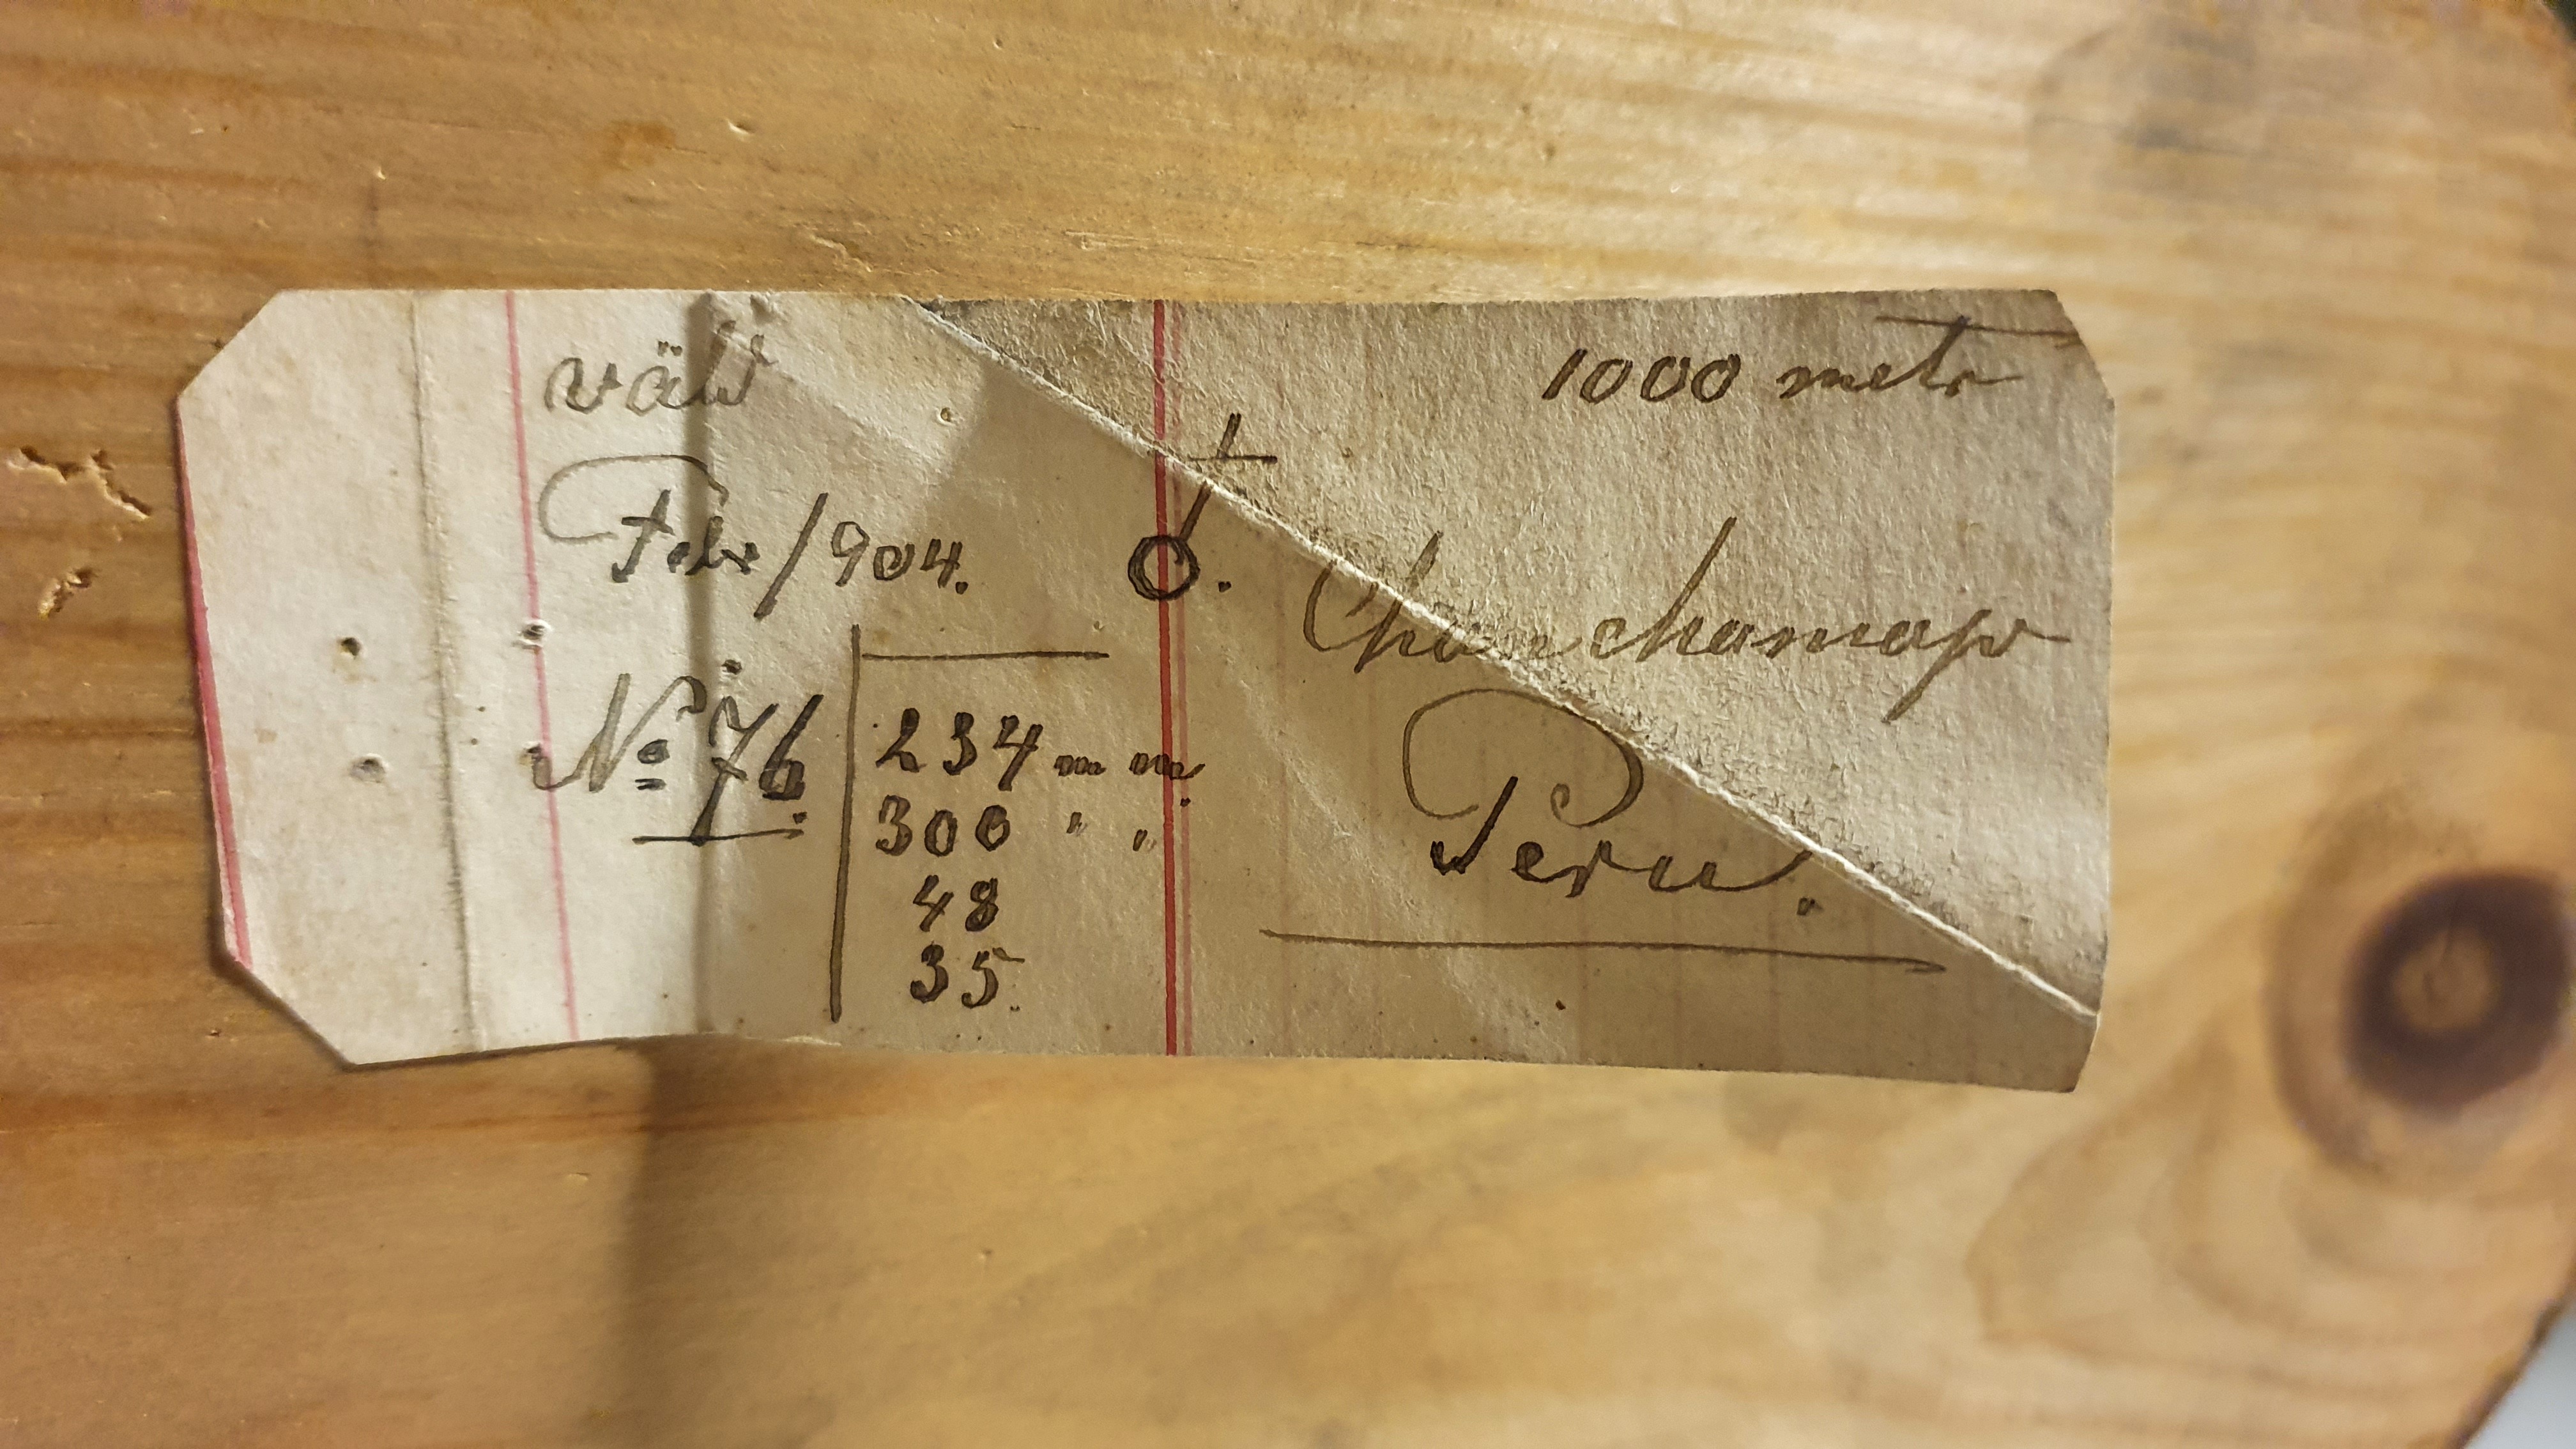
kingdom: Animalia
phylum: Chordata
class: Mammalia
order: Didelphimorphia
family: Didelphidae
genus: Metachirus
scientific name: Metachirus nudicaudatus
